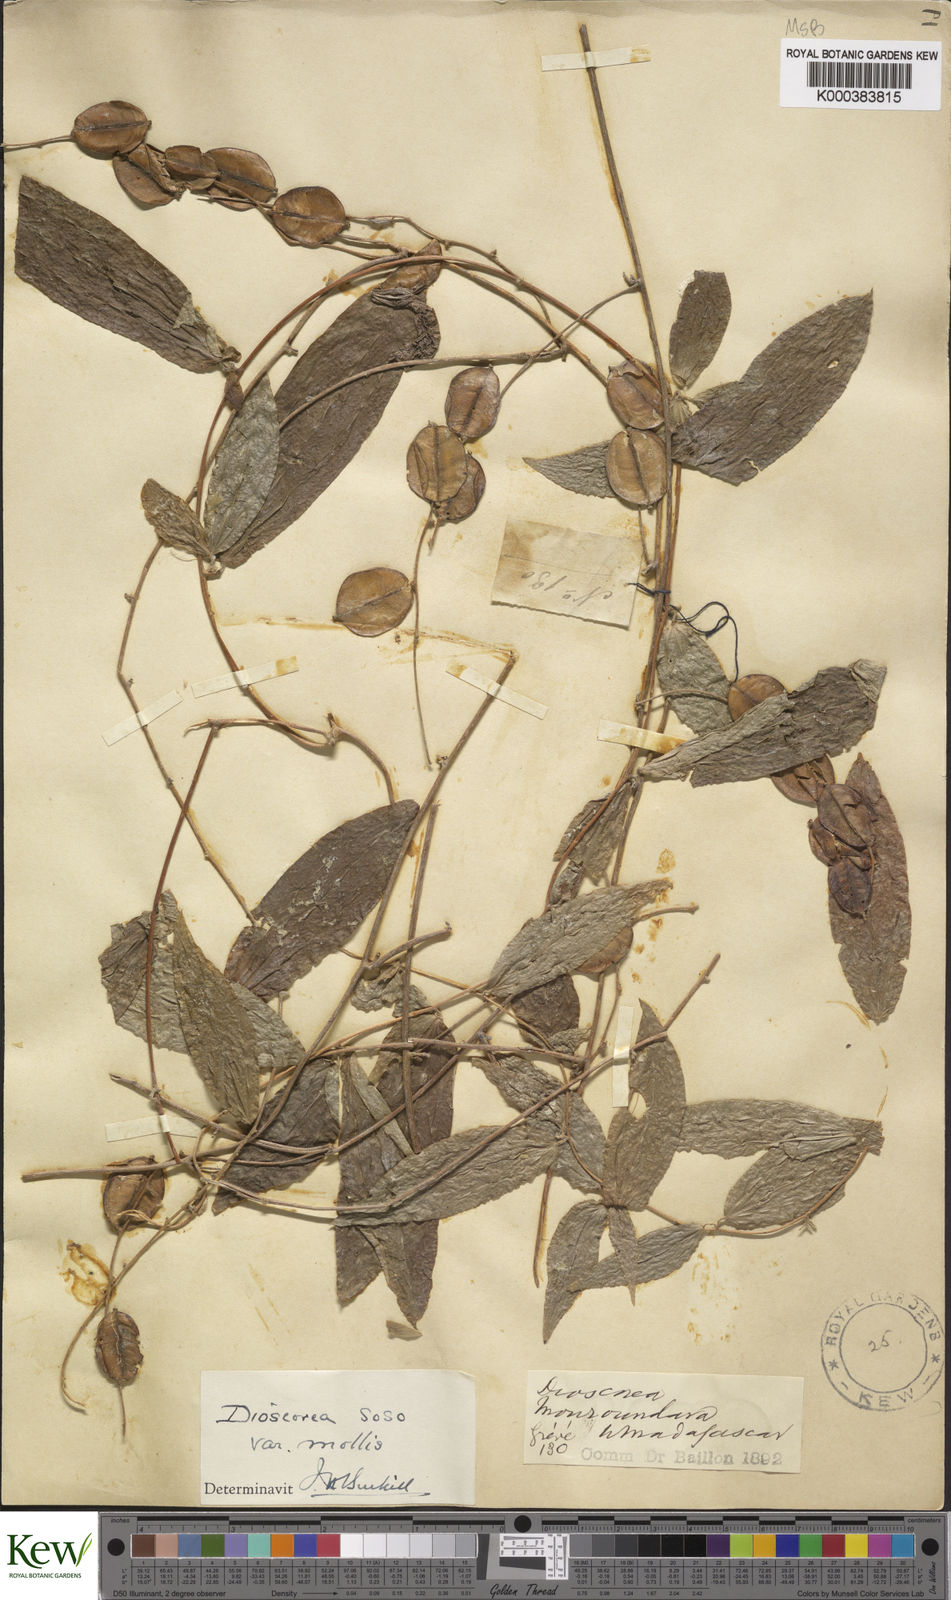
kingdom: Plantae
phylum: Tracheophyta
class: Liliopsida
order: Dioscoreales
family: Dioscoreaceae
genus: Dioscorea
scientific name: Dioscorea
